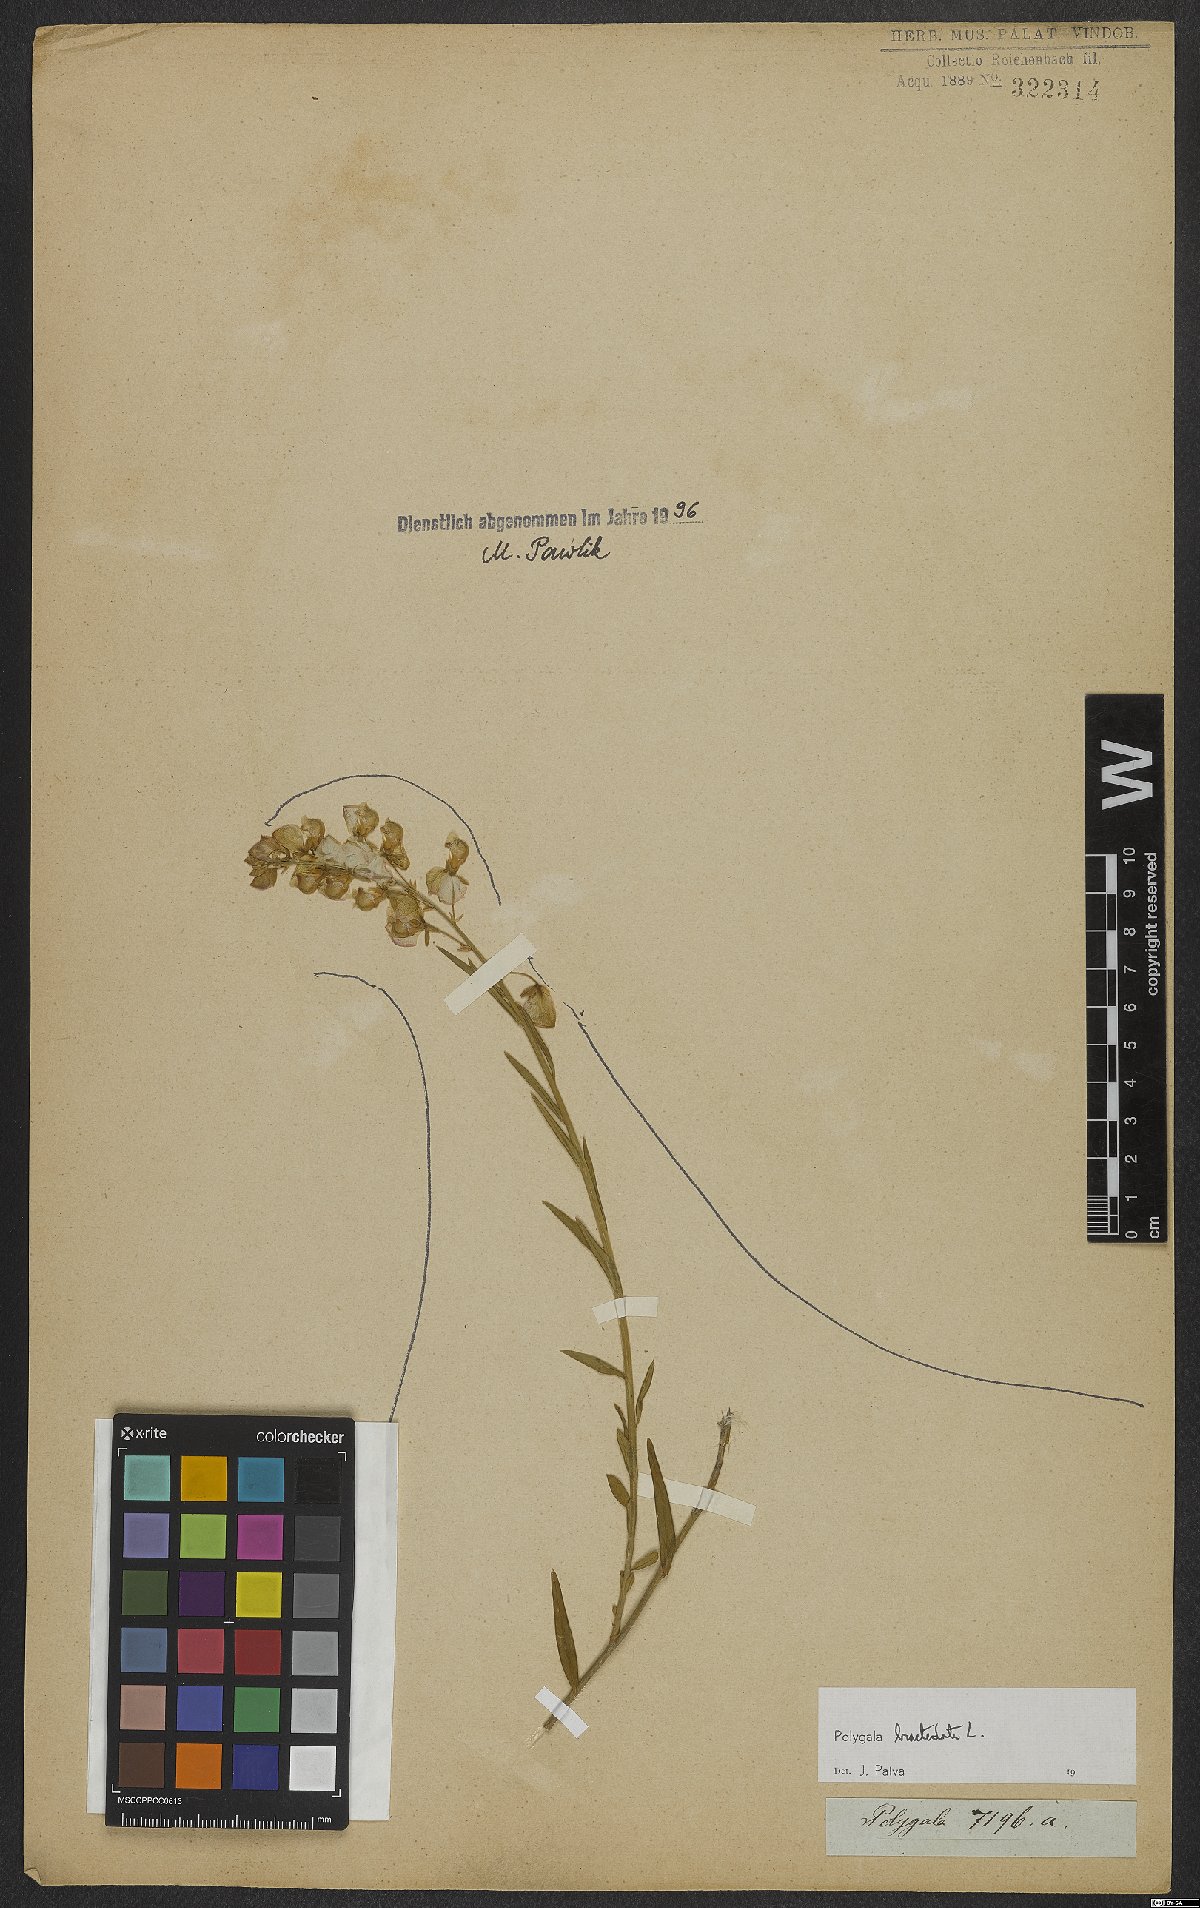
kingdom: Plantae
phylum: Tracheophyta
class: Magnoliopsida
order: Fabales
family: Polygalaceae
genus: Polygala
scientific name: Polygala bracteata
